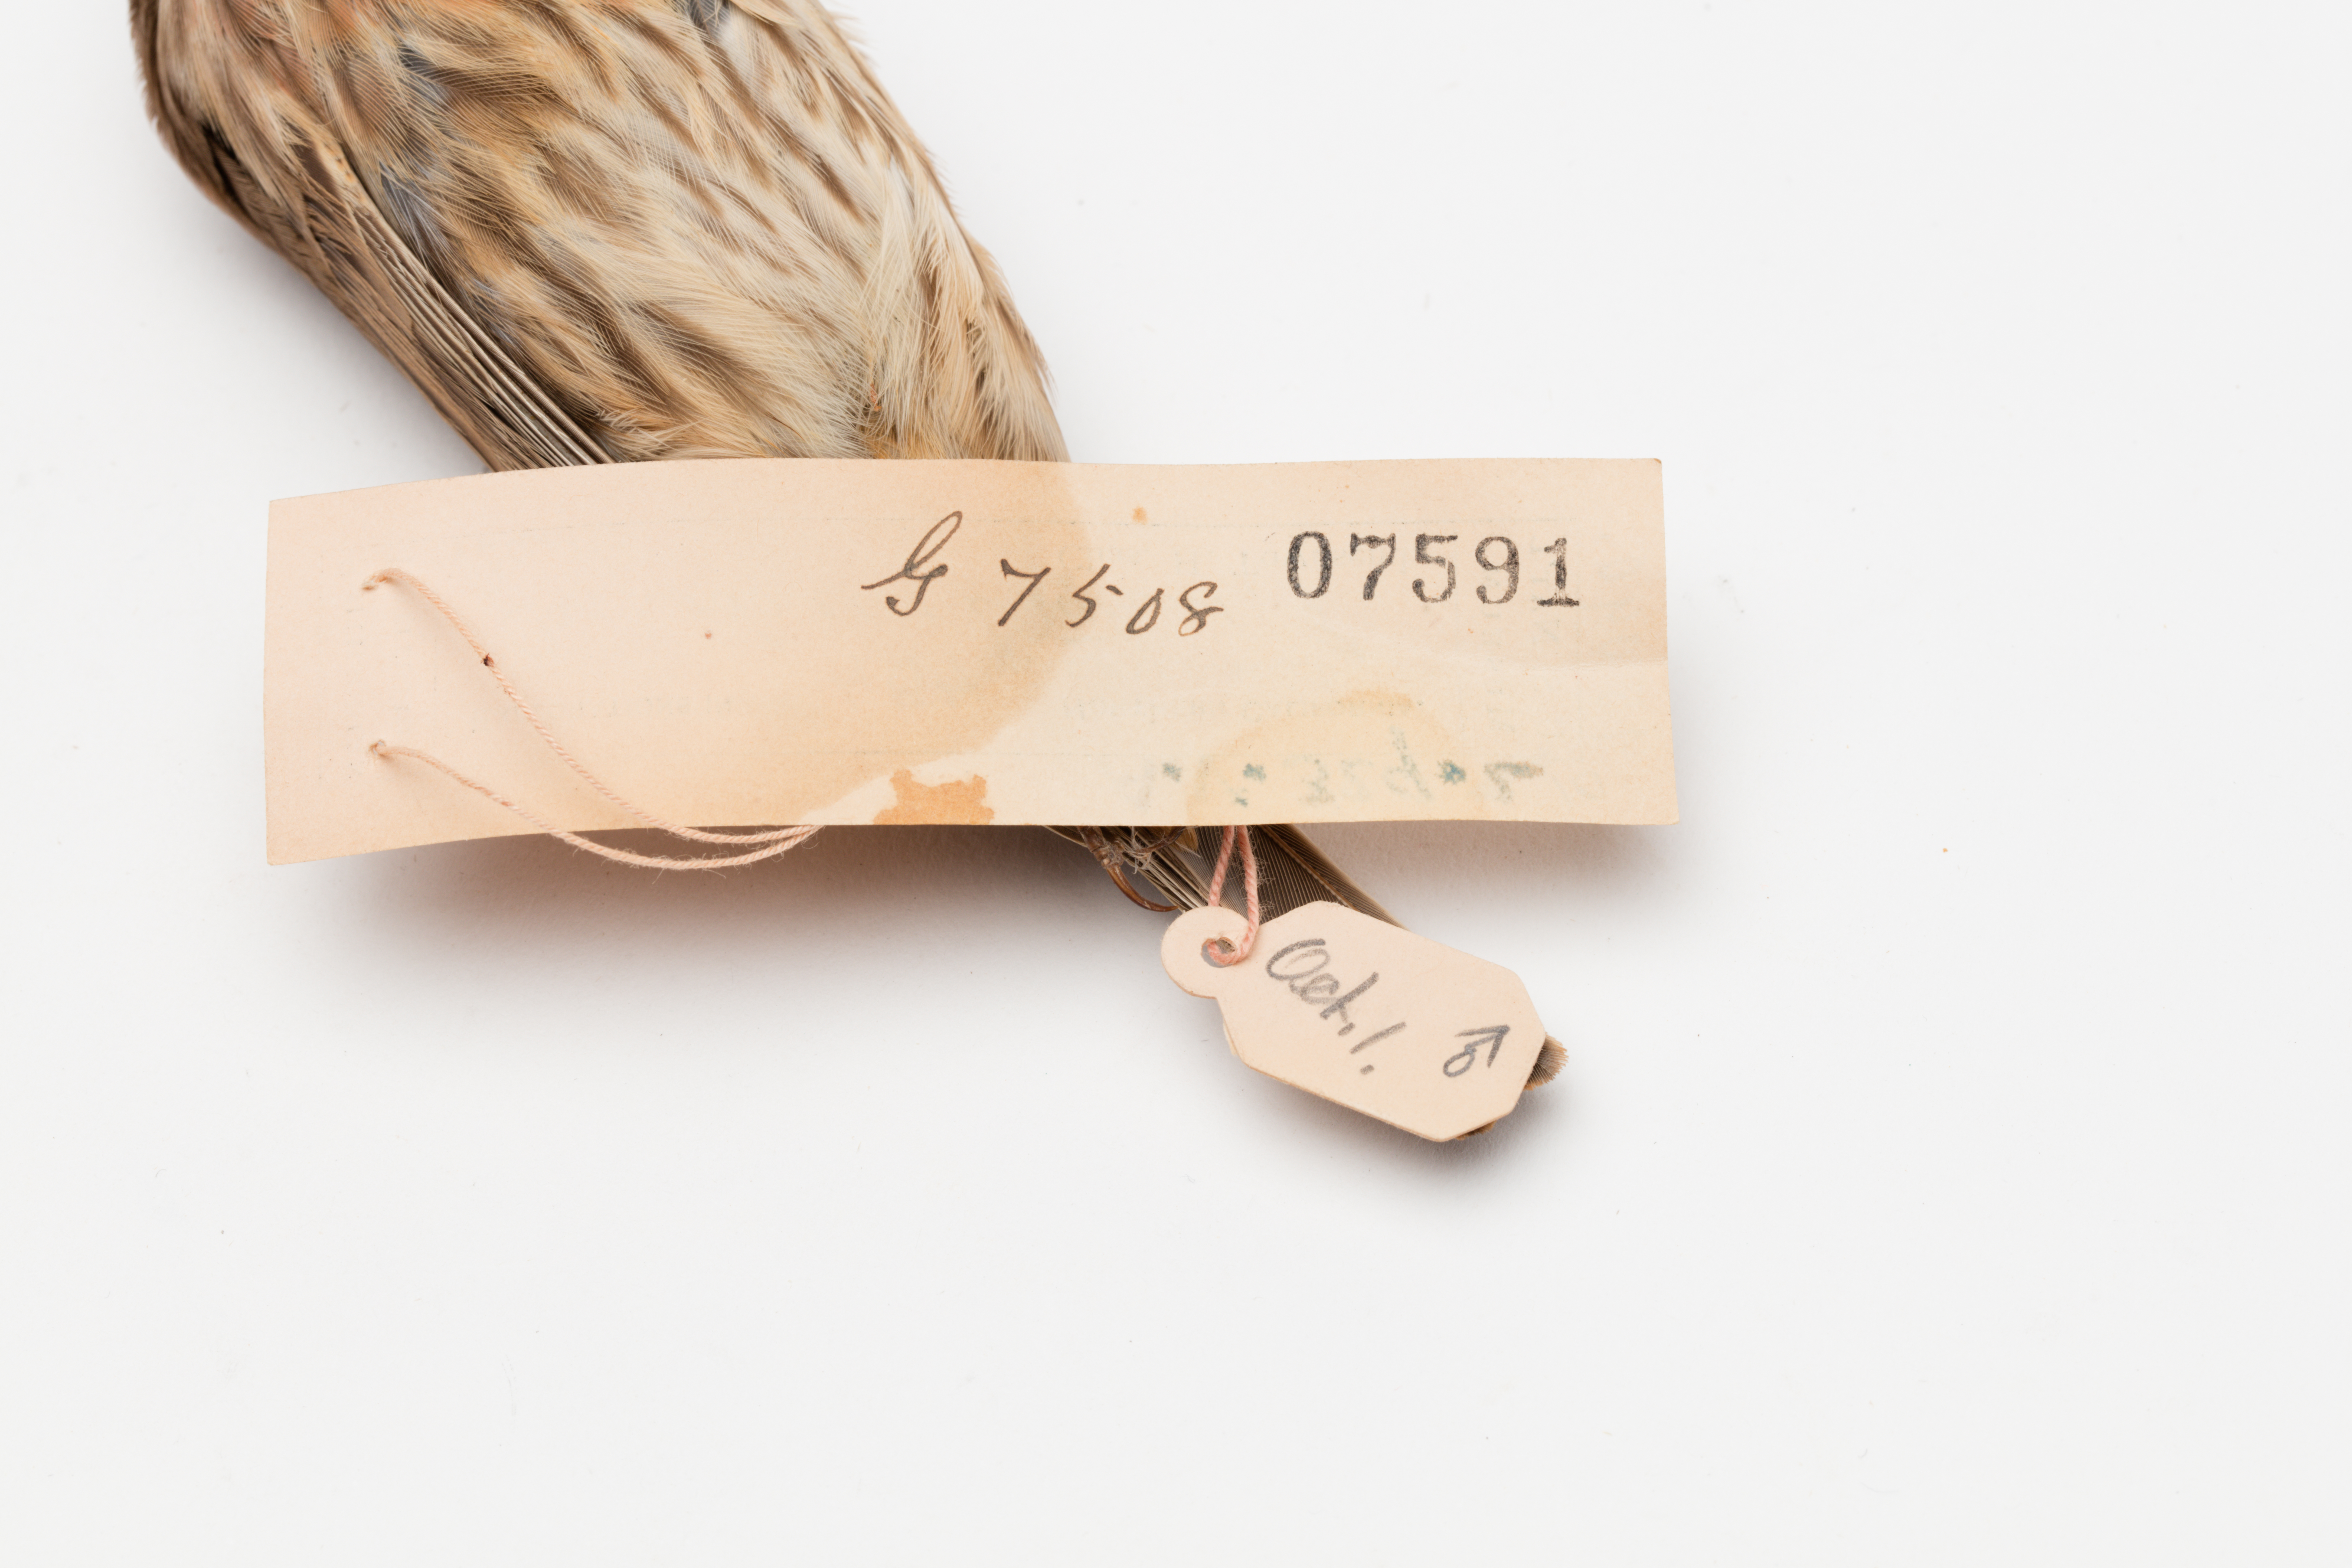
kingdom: Animalia
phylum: Chordata
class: Aves
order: Passeriformes
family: Fringillidae
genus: Haemorhous
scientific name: Haemorhous mexicanus
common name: House finch
